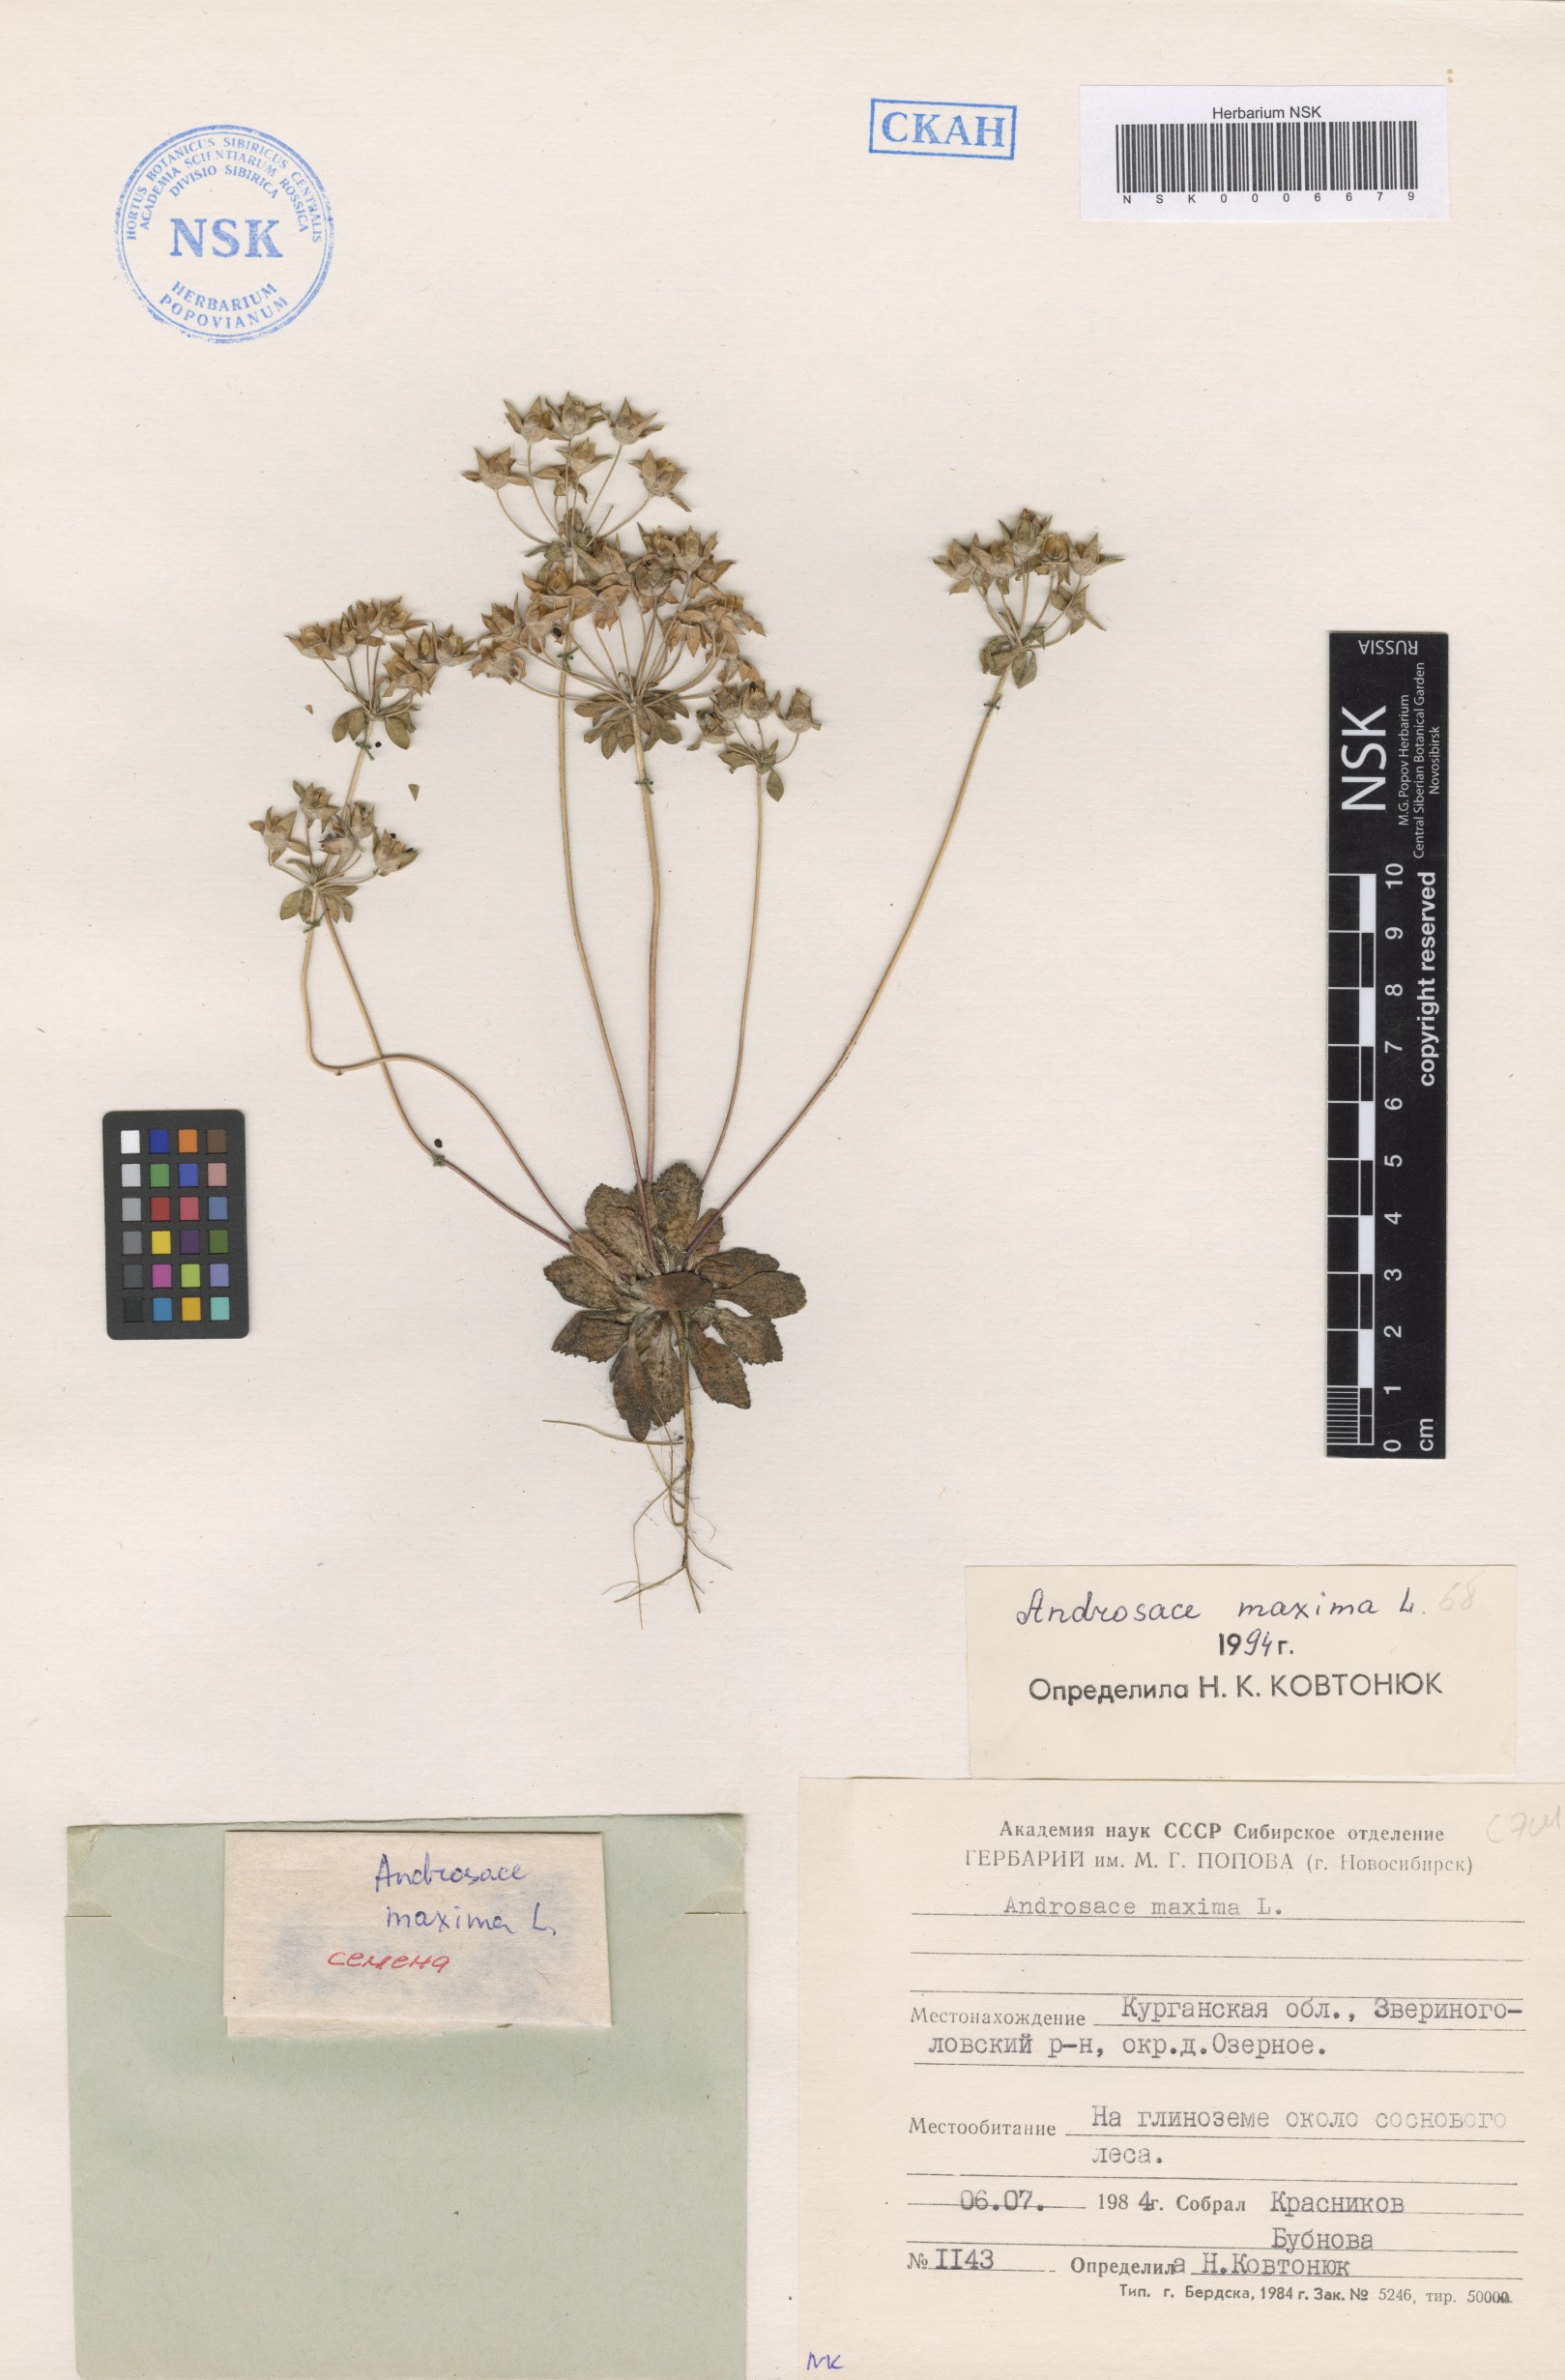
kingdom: Plantae
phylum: Tracheophyta
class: Magnoliopsida
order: Ericales
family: Primulaceae
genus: Androsace
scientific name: Androsace maxima
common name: Annual androsace
